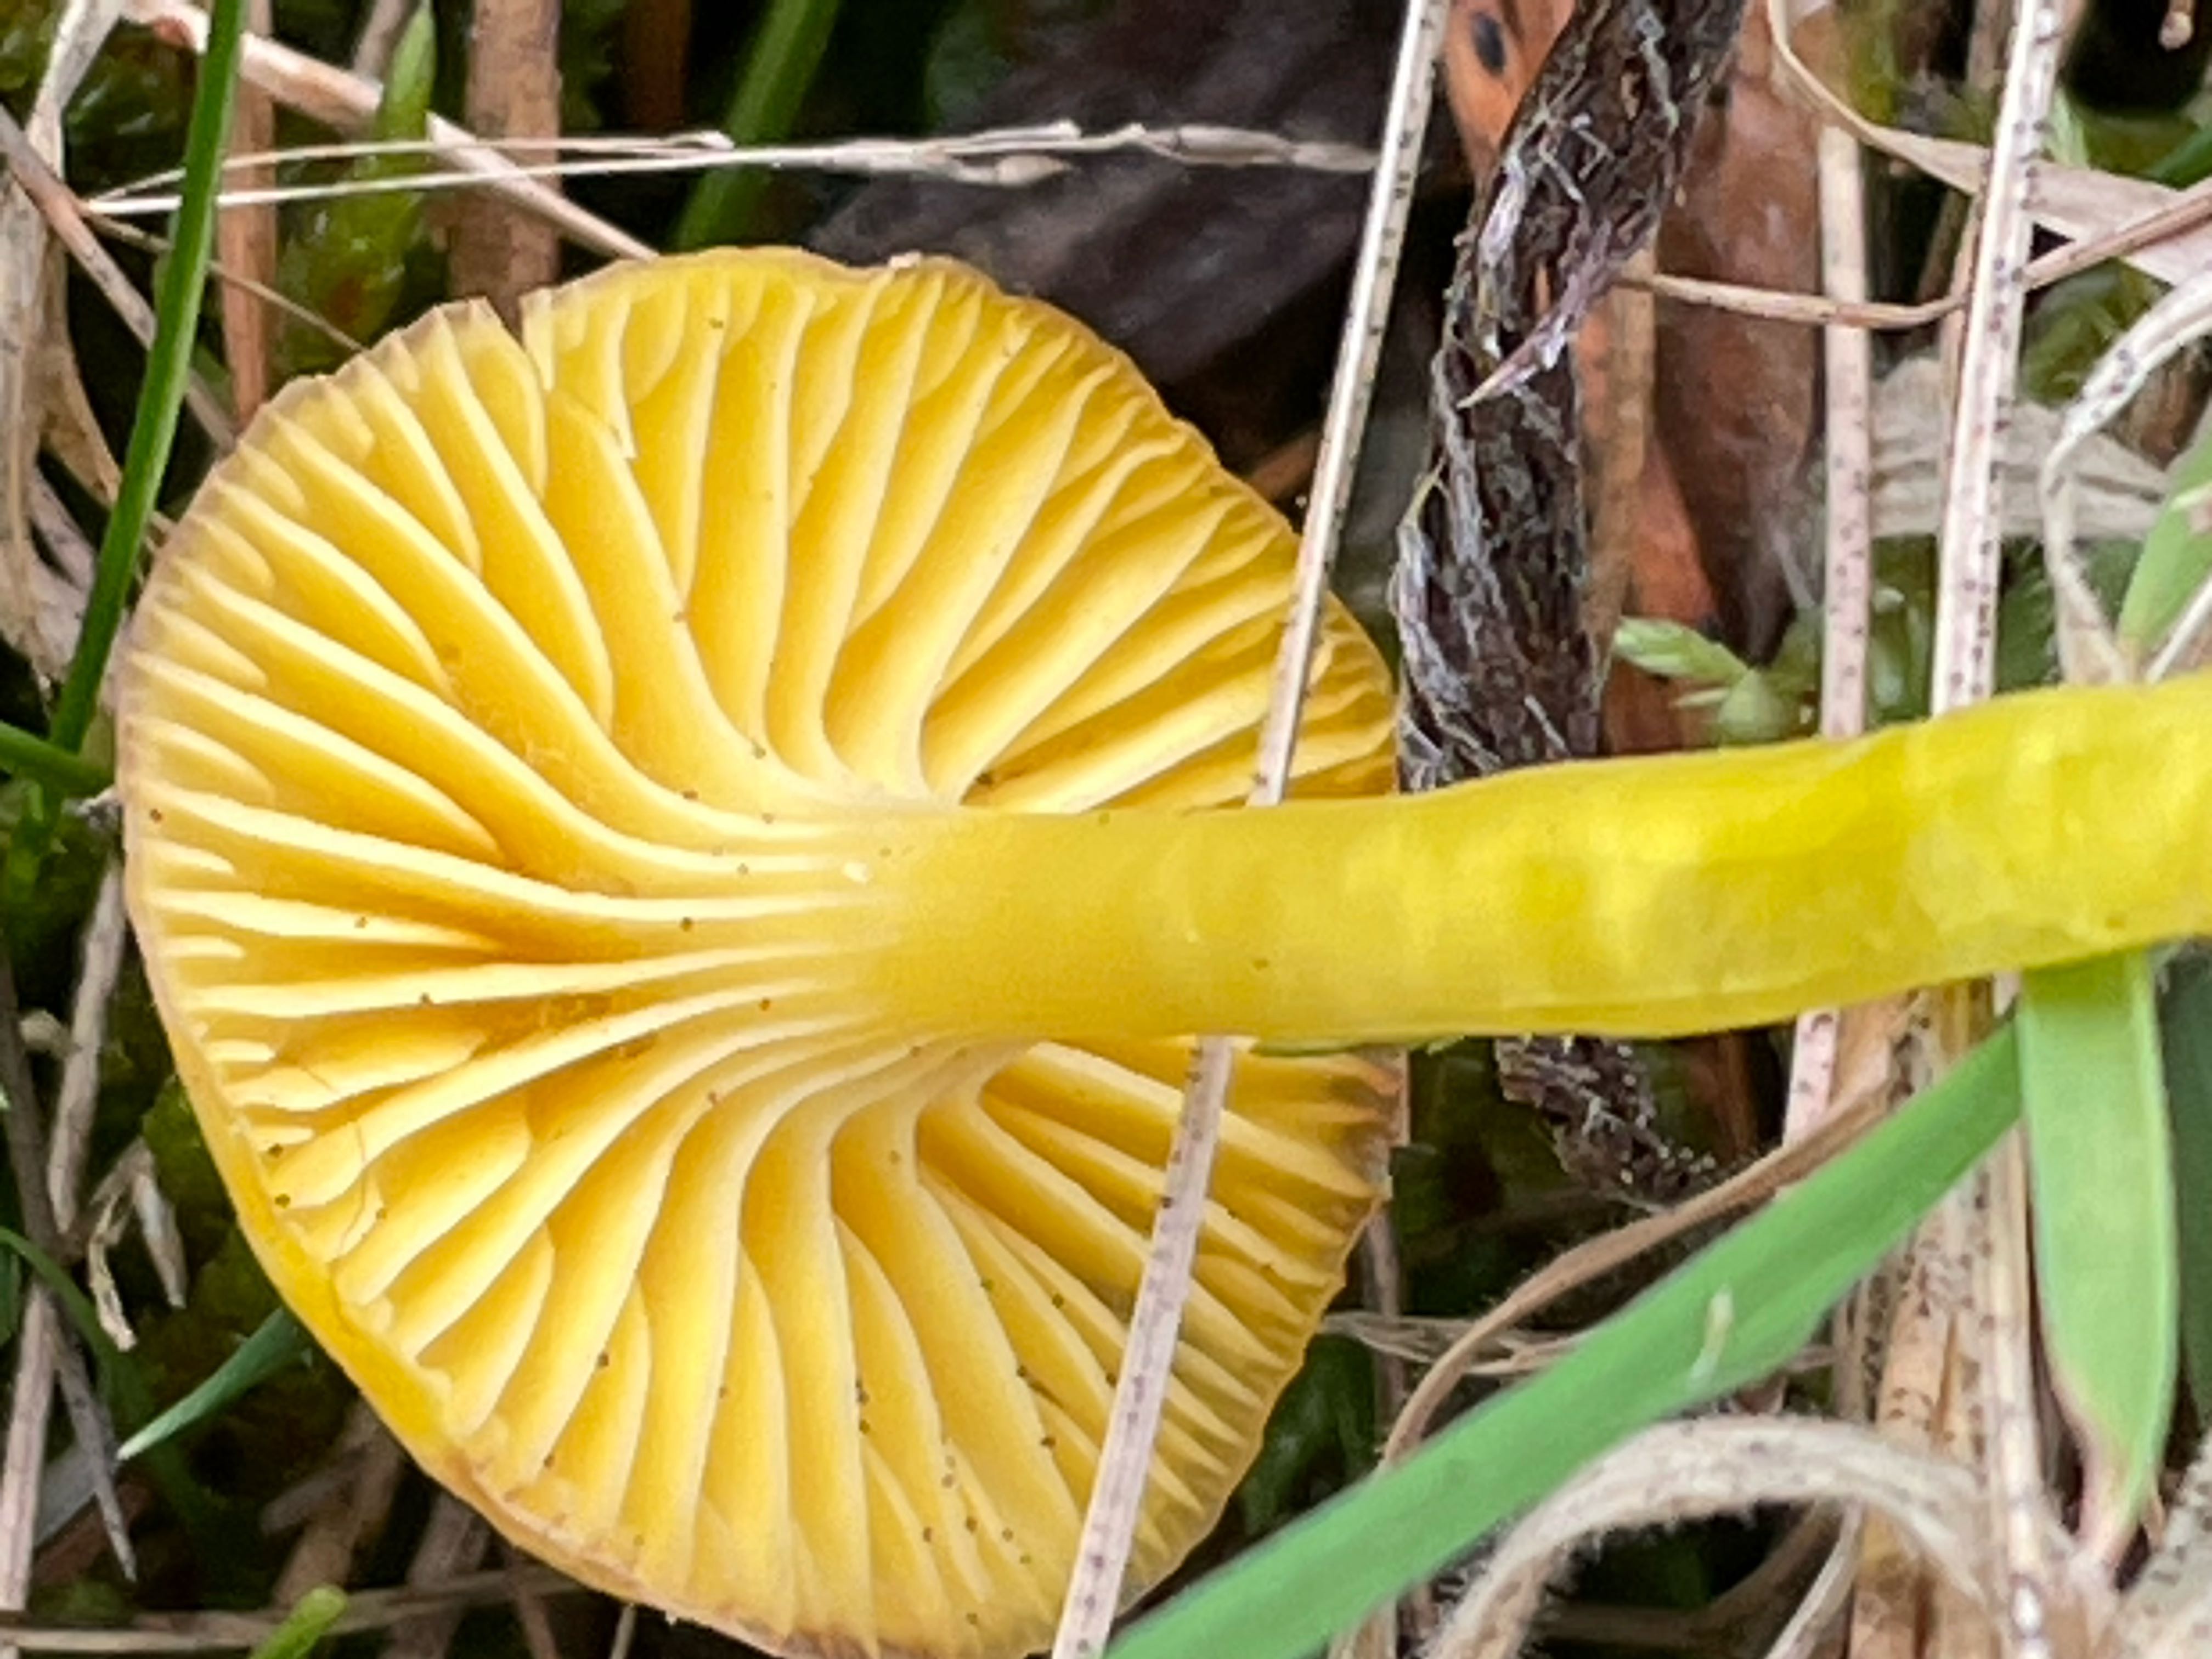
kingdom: Fungi
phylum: Basidiomycota
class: Agaricomycetes
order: Agaricales
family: Hygrophoraceae
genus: Hygrocybe
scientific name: Hygrocybe ceracea
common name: voksgul vokshat
